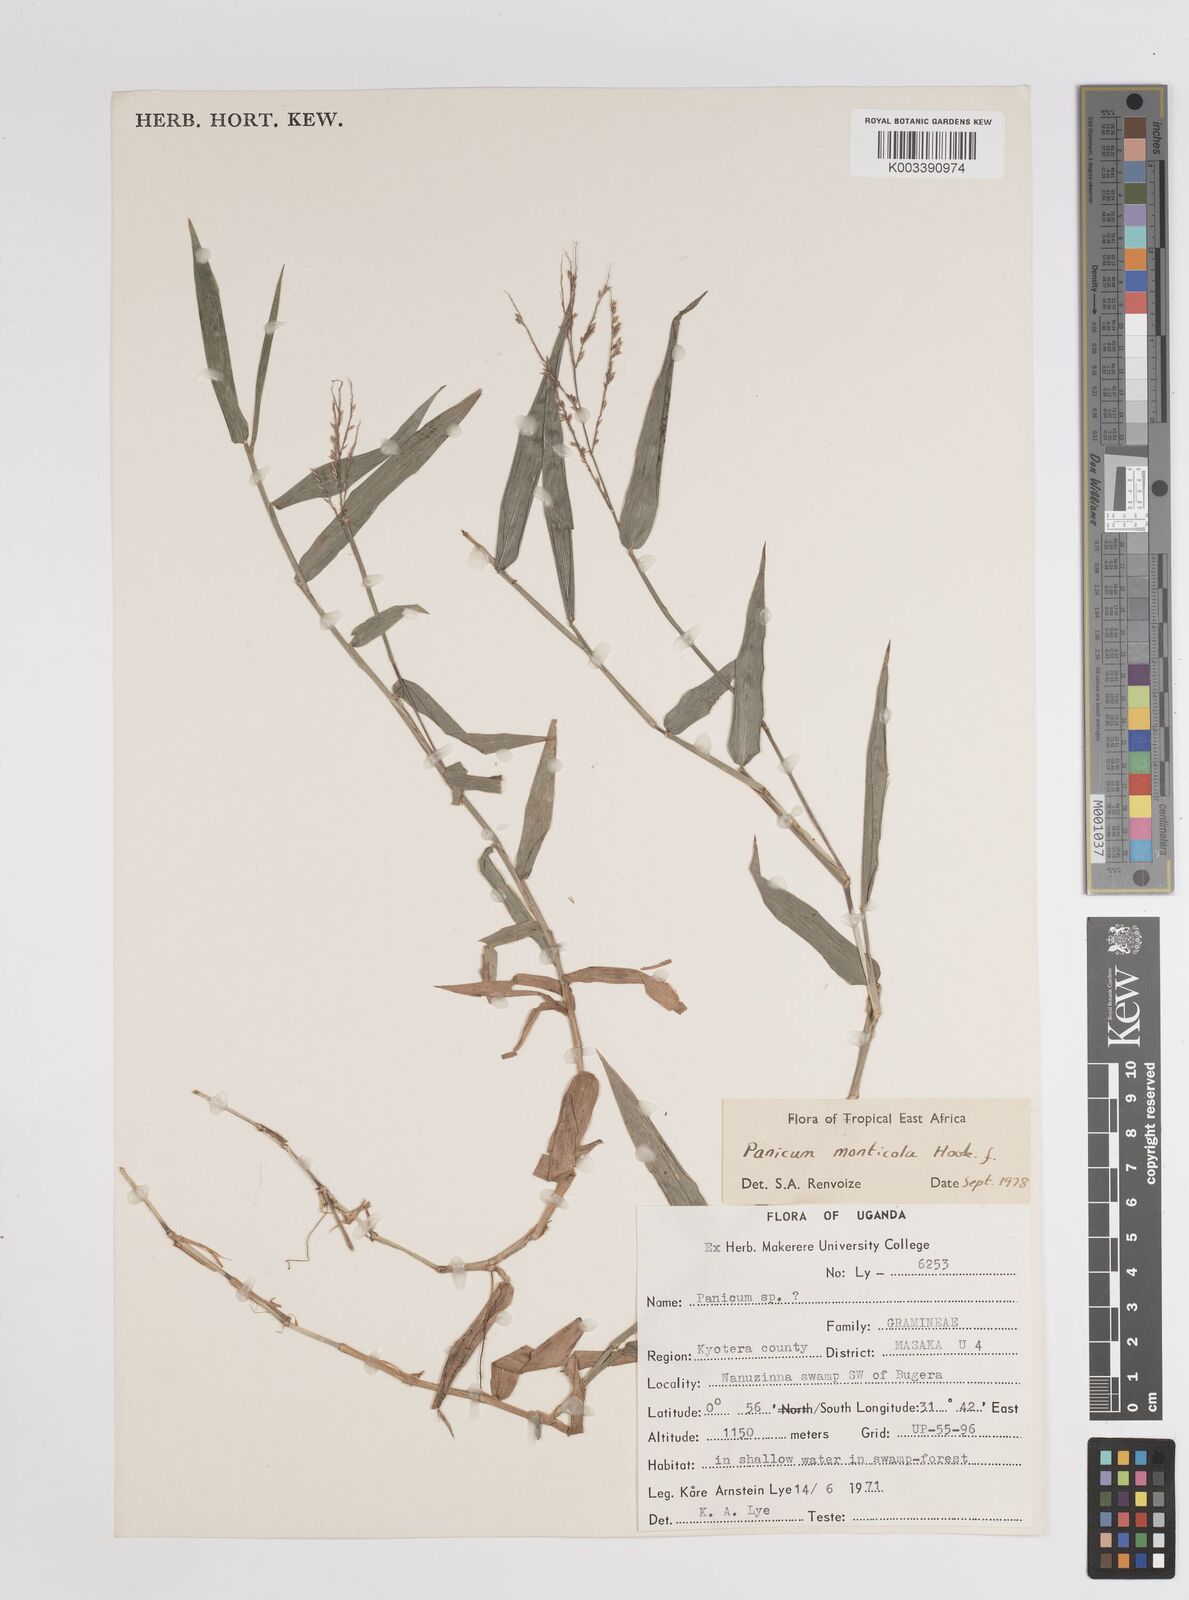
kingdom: Plantae
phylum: Tracheophyta
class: Liliopsida
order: Poales
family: Poaceae
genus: Panicum
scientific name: Panicum
